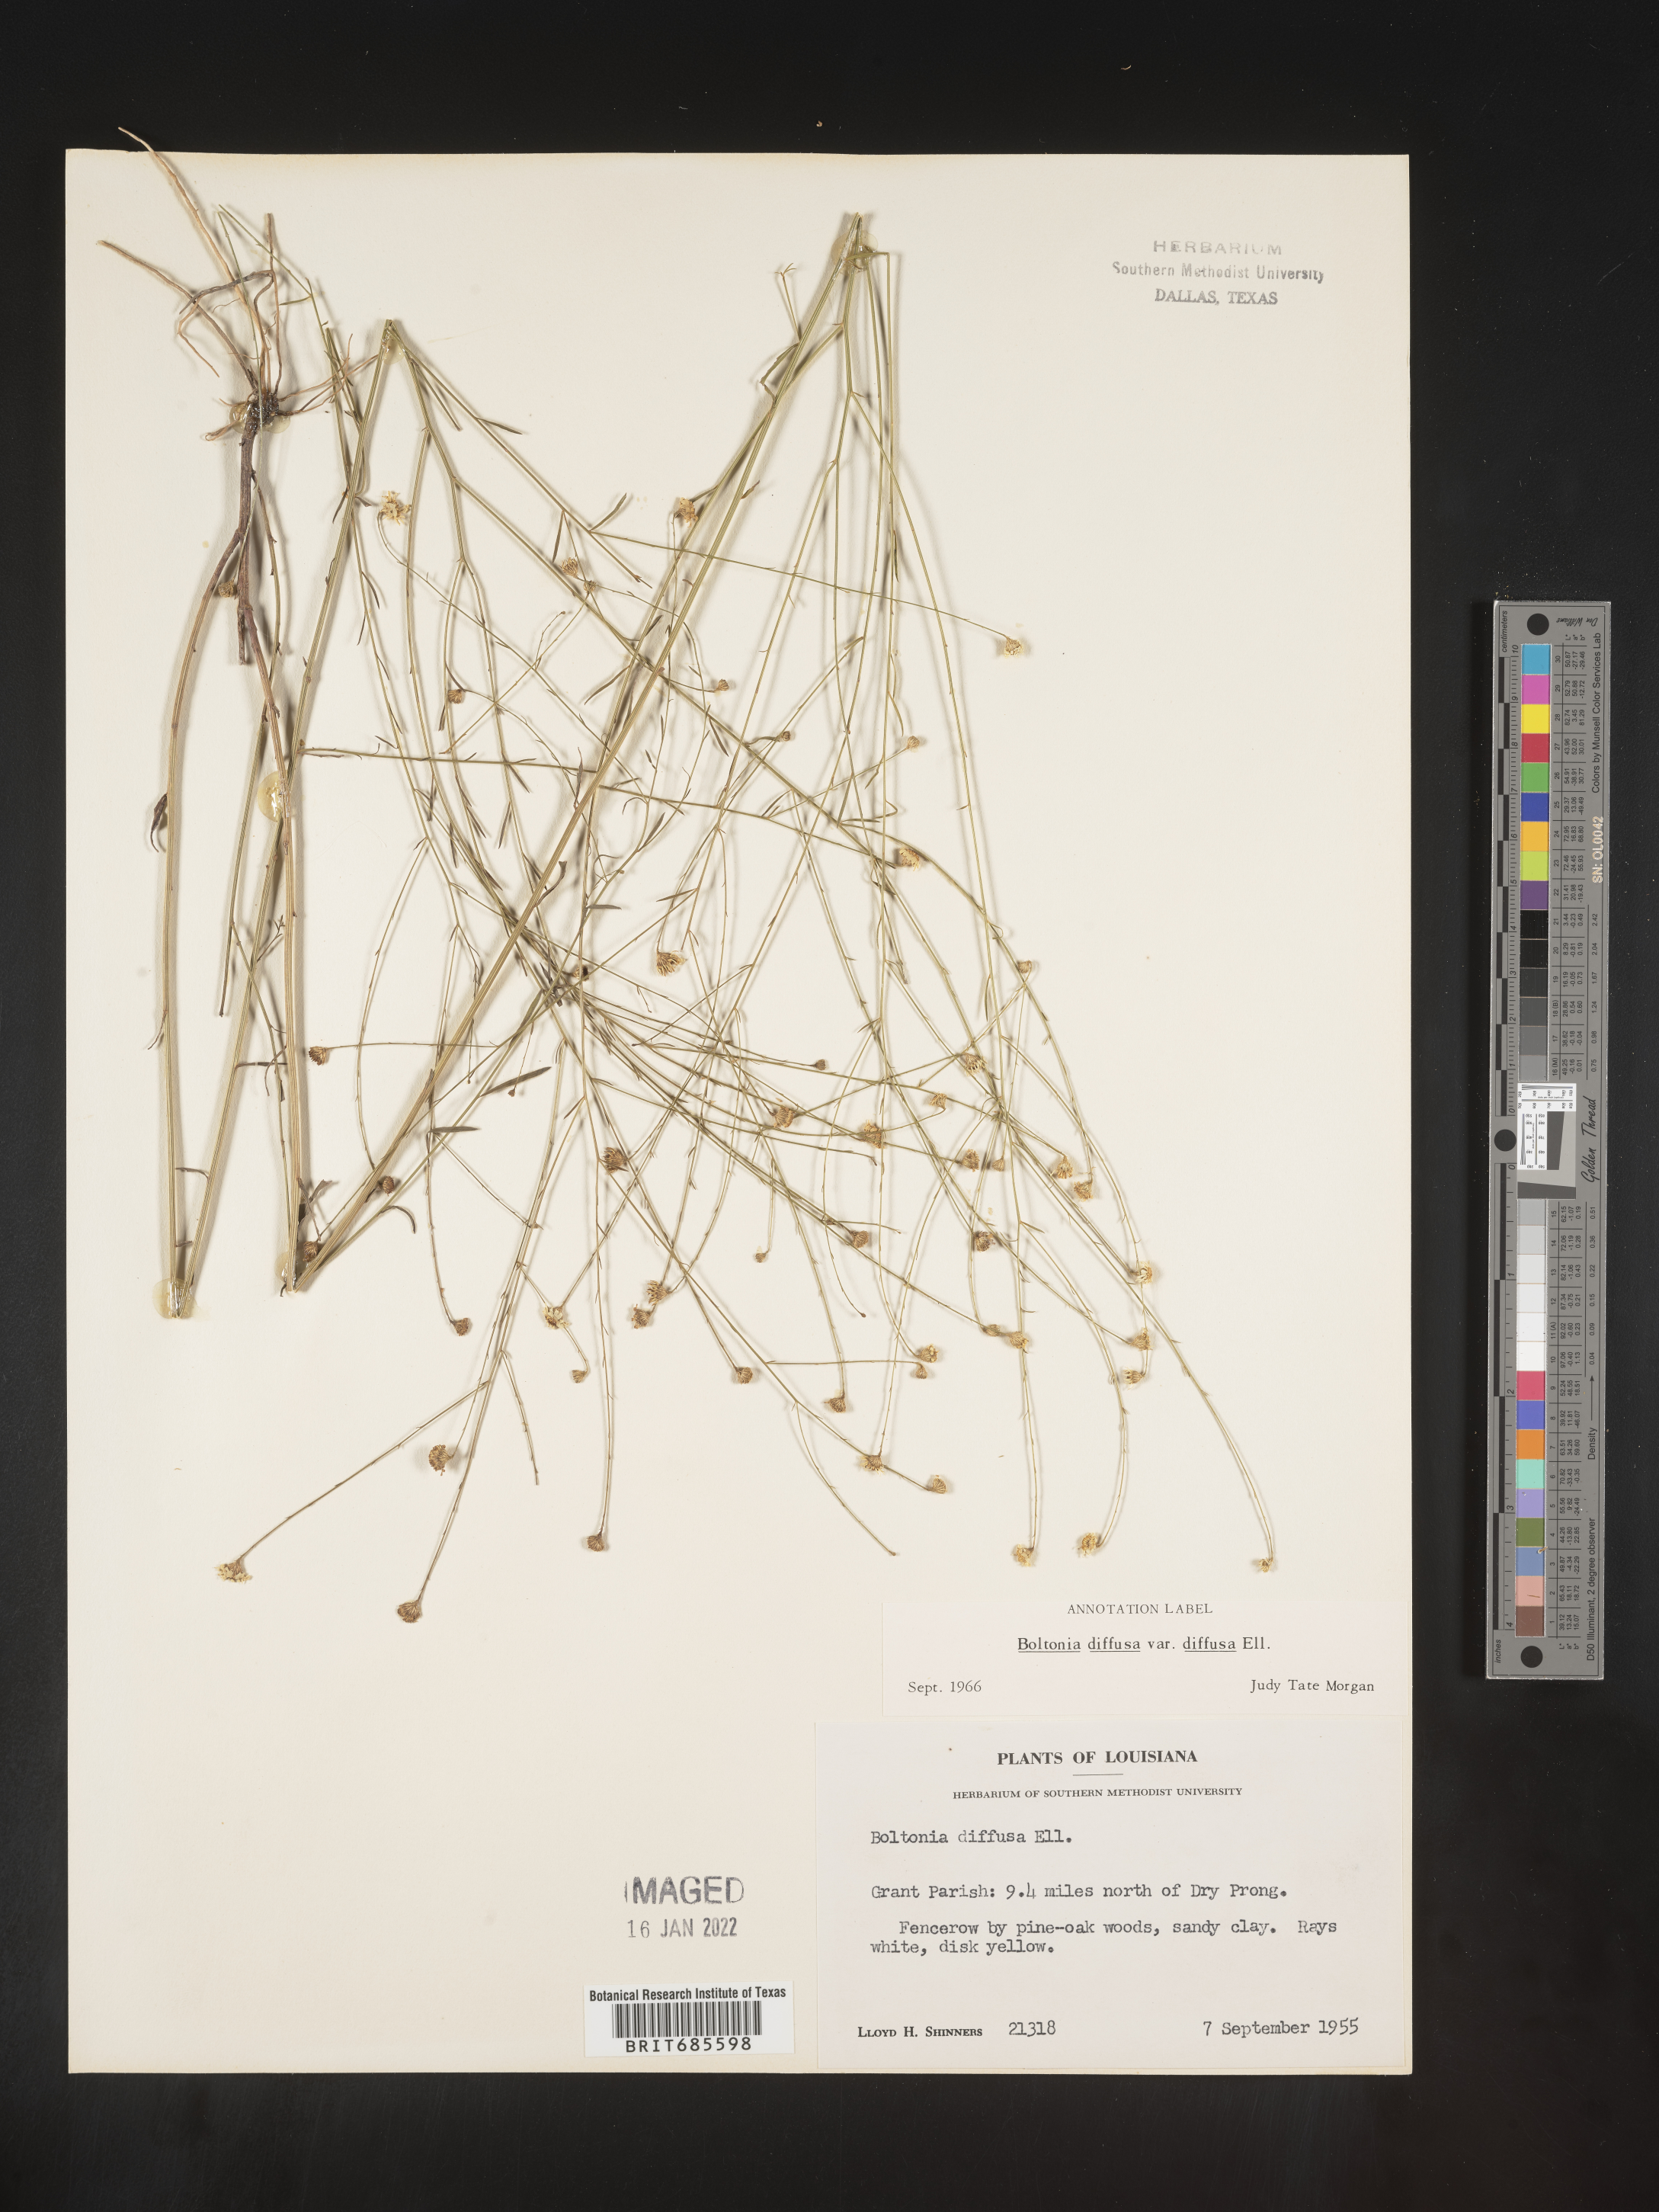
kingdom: Plantae
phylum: Tracheophyta
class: Magnoliopsida
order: Asterales
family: Asteraceae
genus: Boltonia
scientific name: Boltonia diffusa
